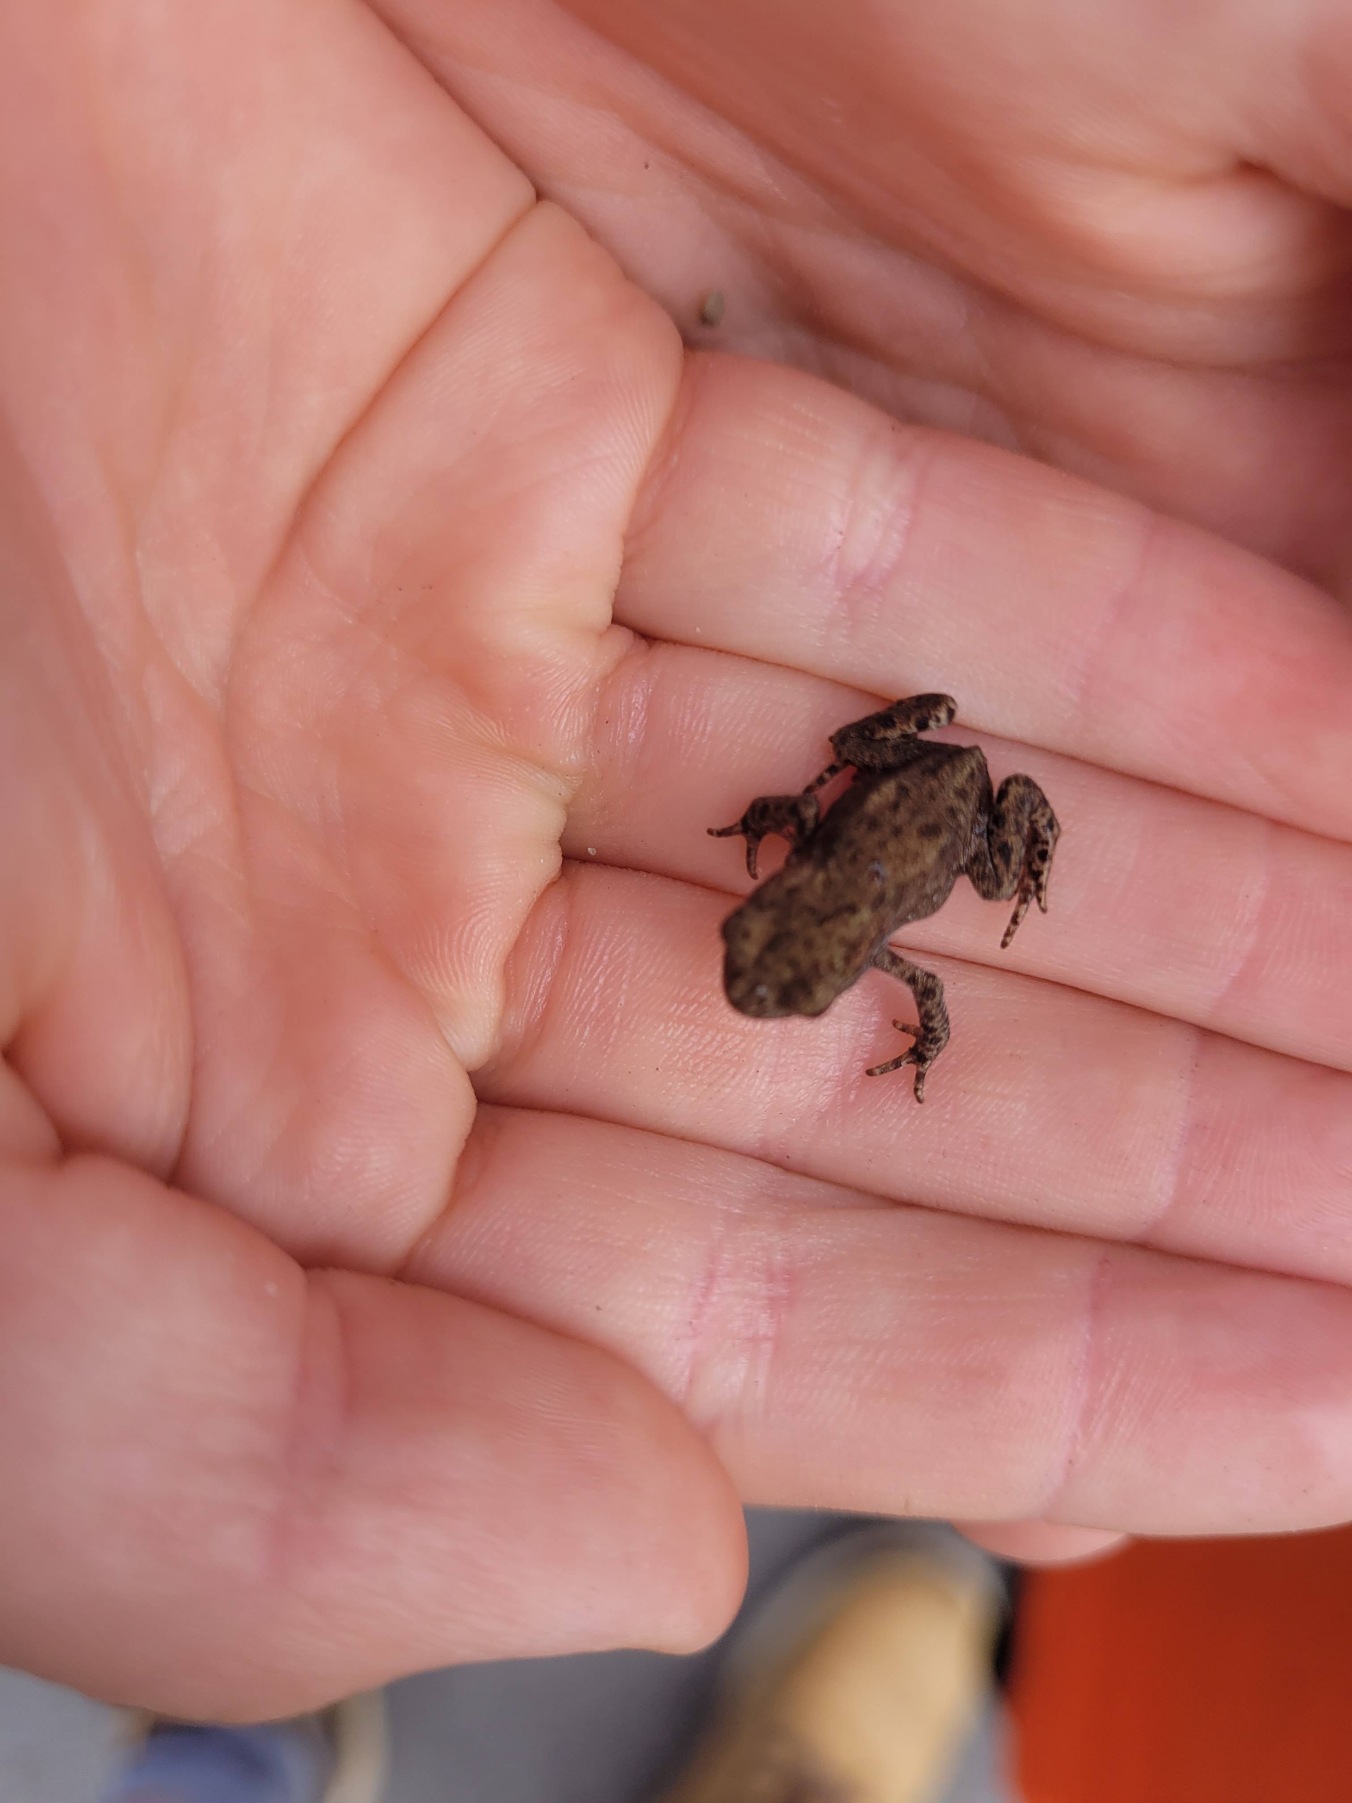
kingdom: Animalia
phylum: Chordata
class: Amphibia
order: Anura
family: Bufonidae
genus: Bufo
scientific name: Bufo bufo
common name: Skrubtudse
